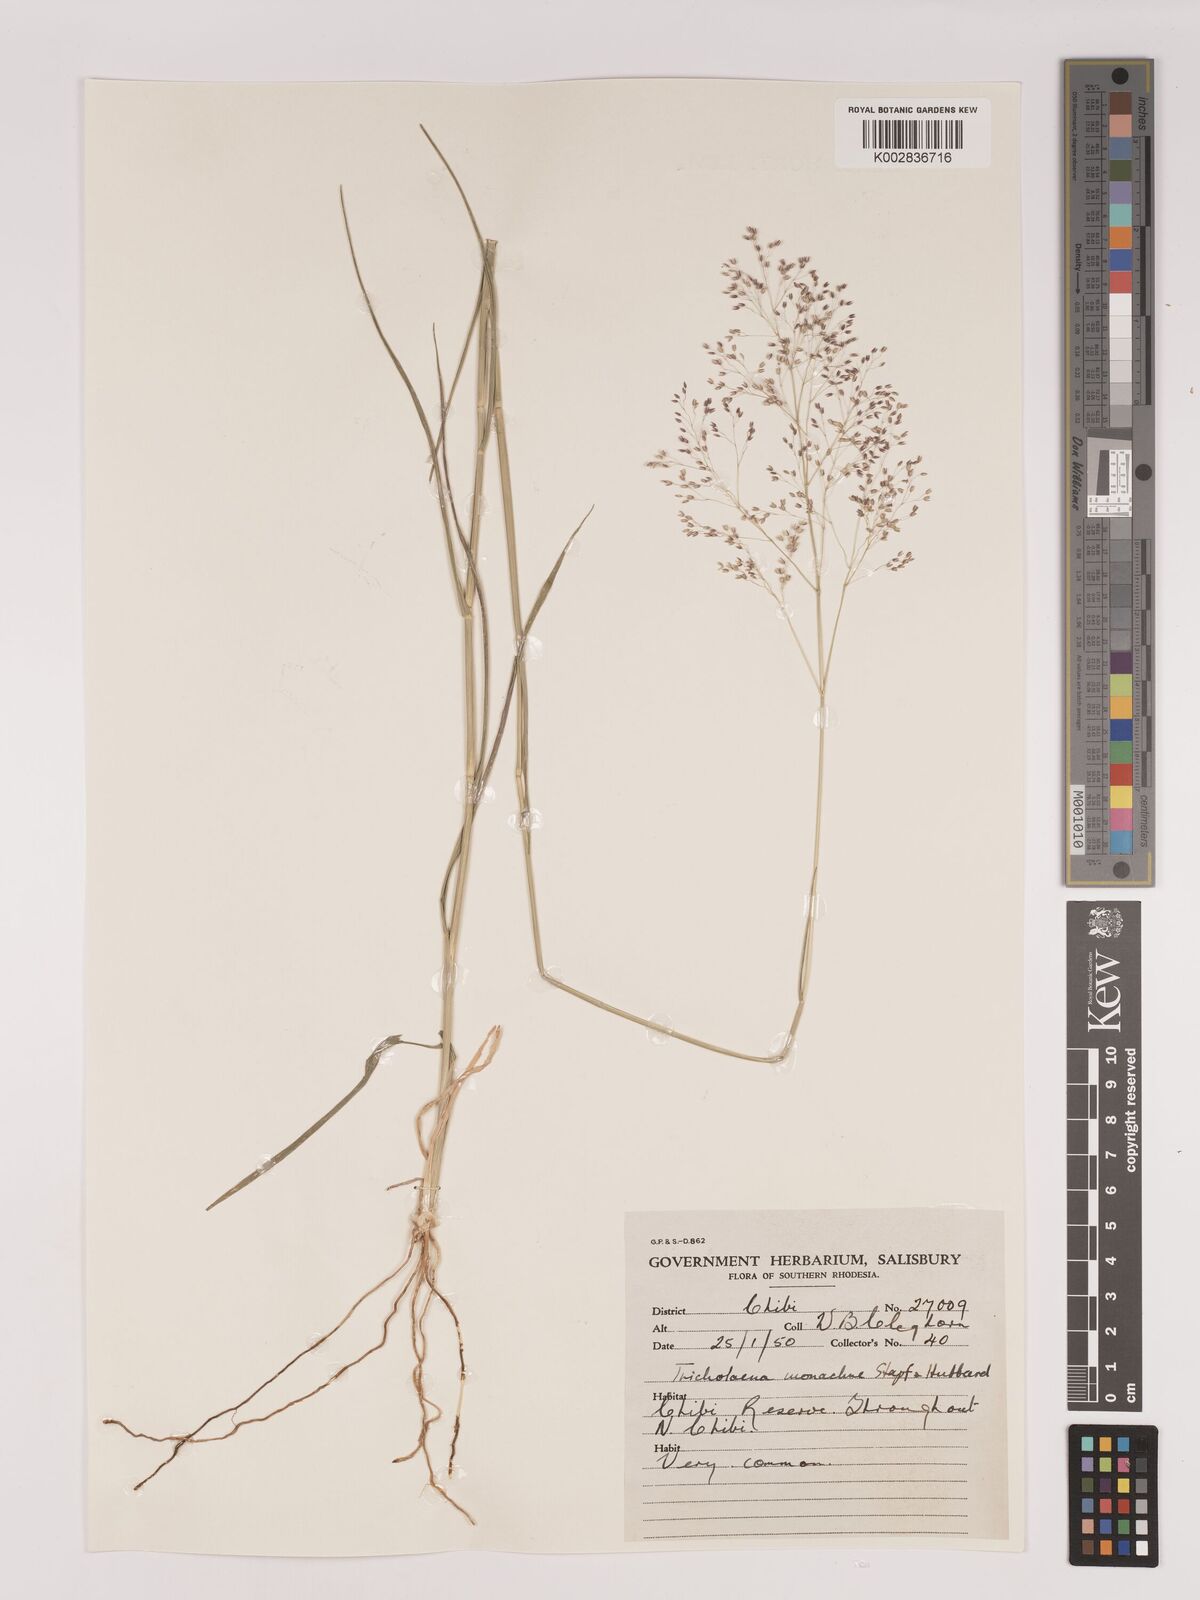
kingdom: Plantae
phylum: Tracheophyta
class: Liliopsida
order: Poales
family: Poaceae
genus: Tricholaena
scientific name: Tricholaena monachne
